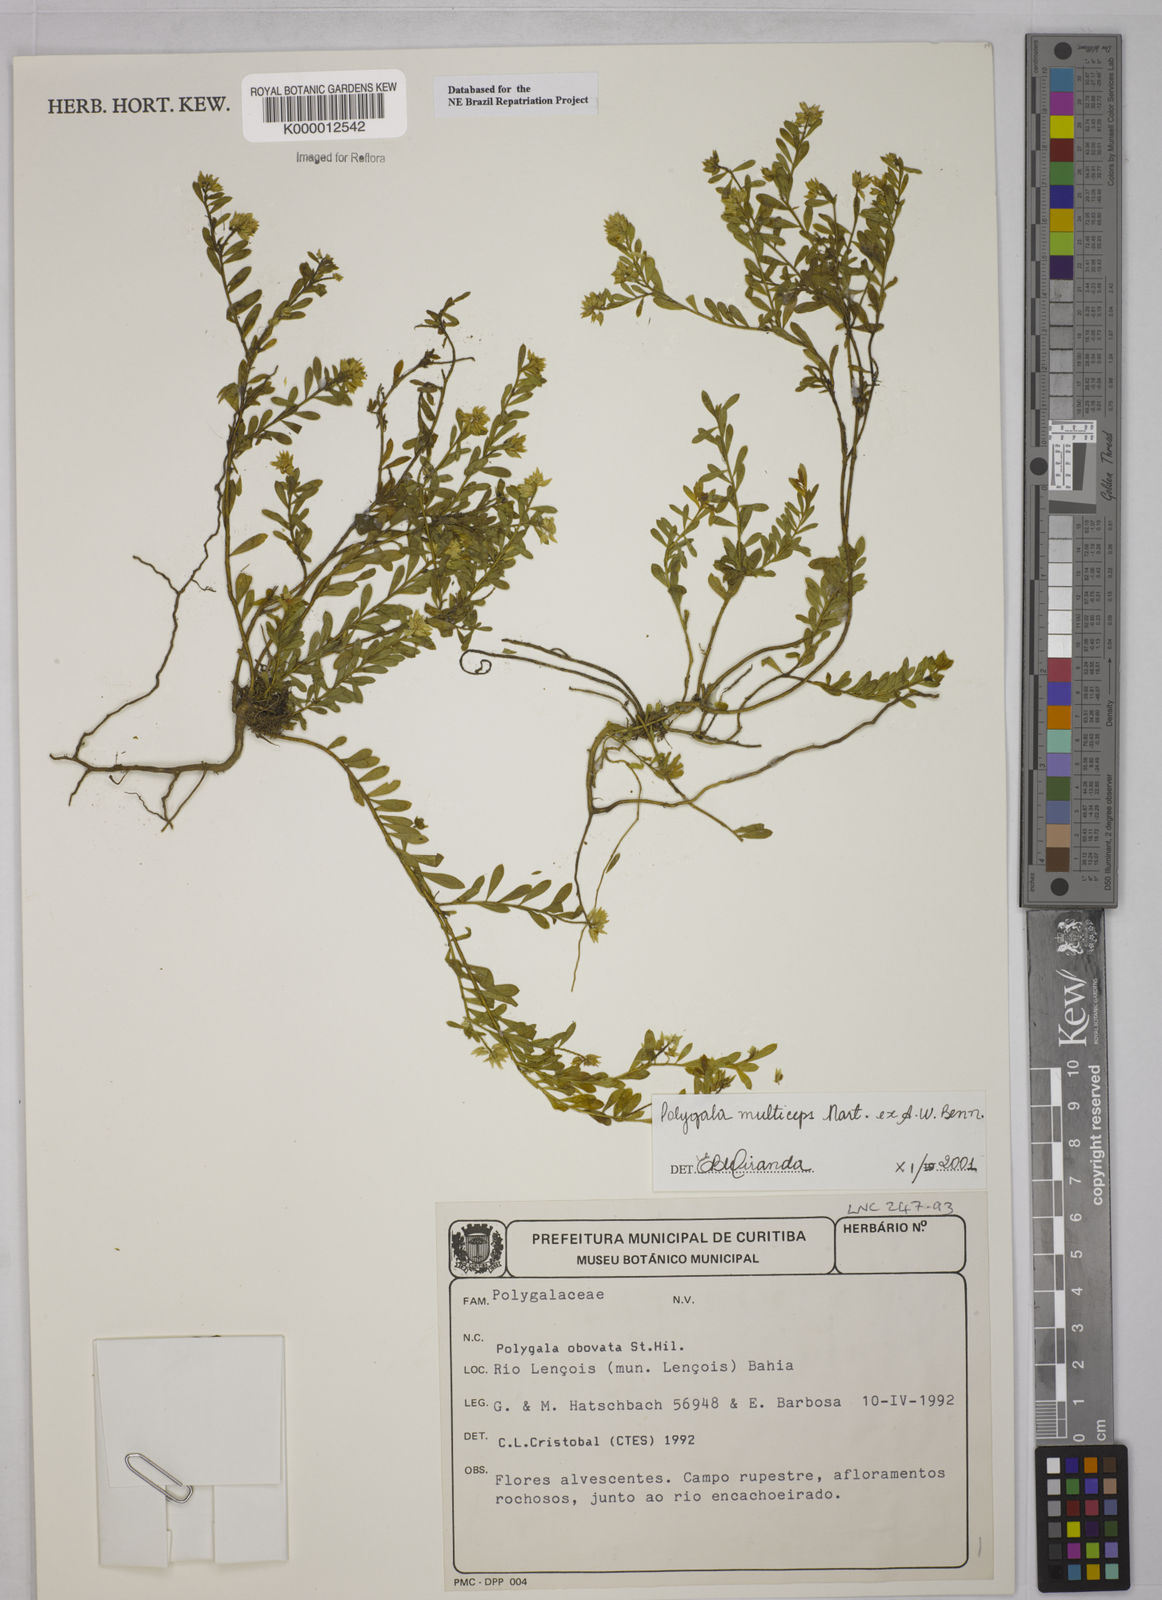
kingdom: Plantae
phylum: Tracheophyta
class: Magnoliopsida
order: Fabales
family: Polygalaceae
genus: Polygala
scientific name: Polygala
